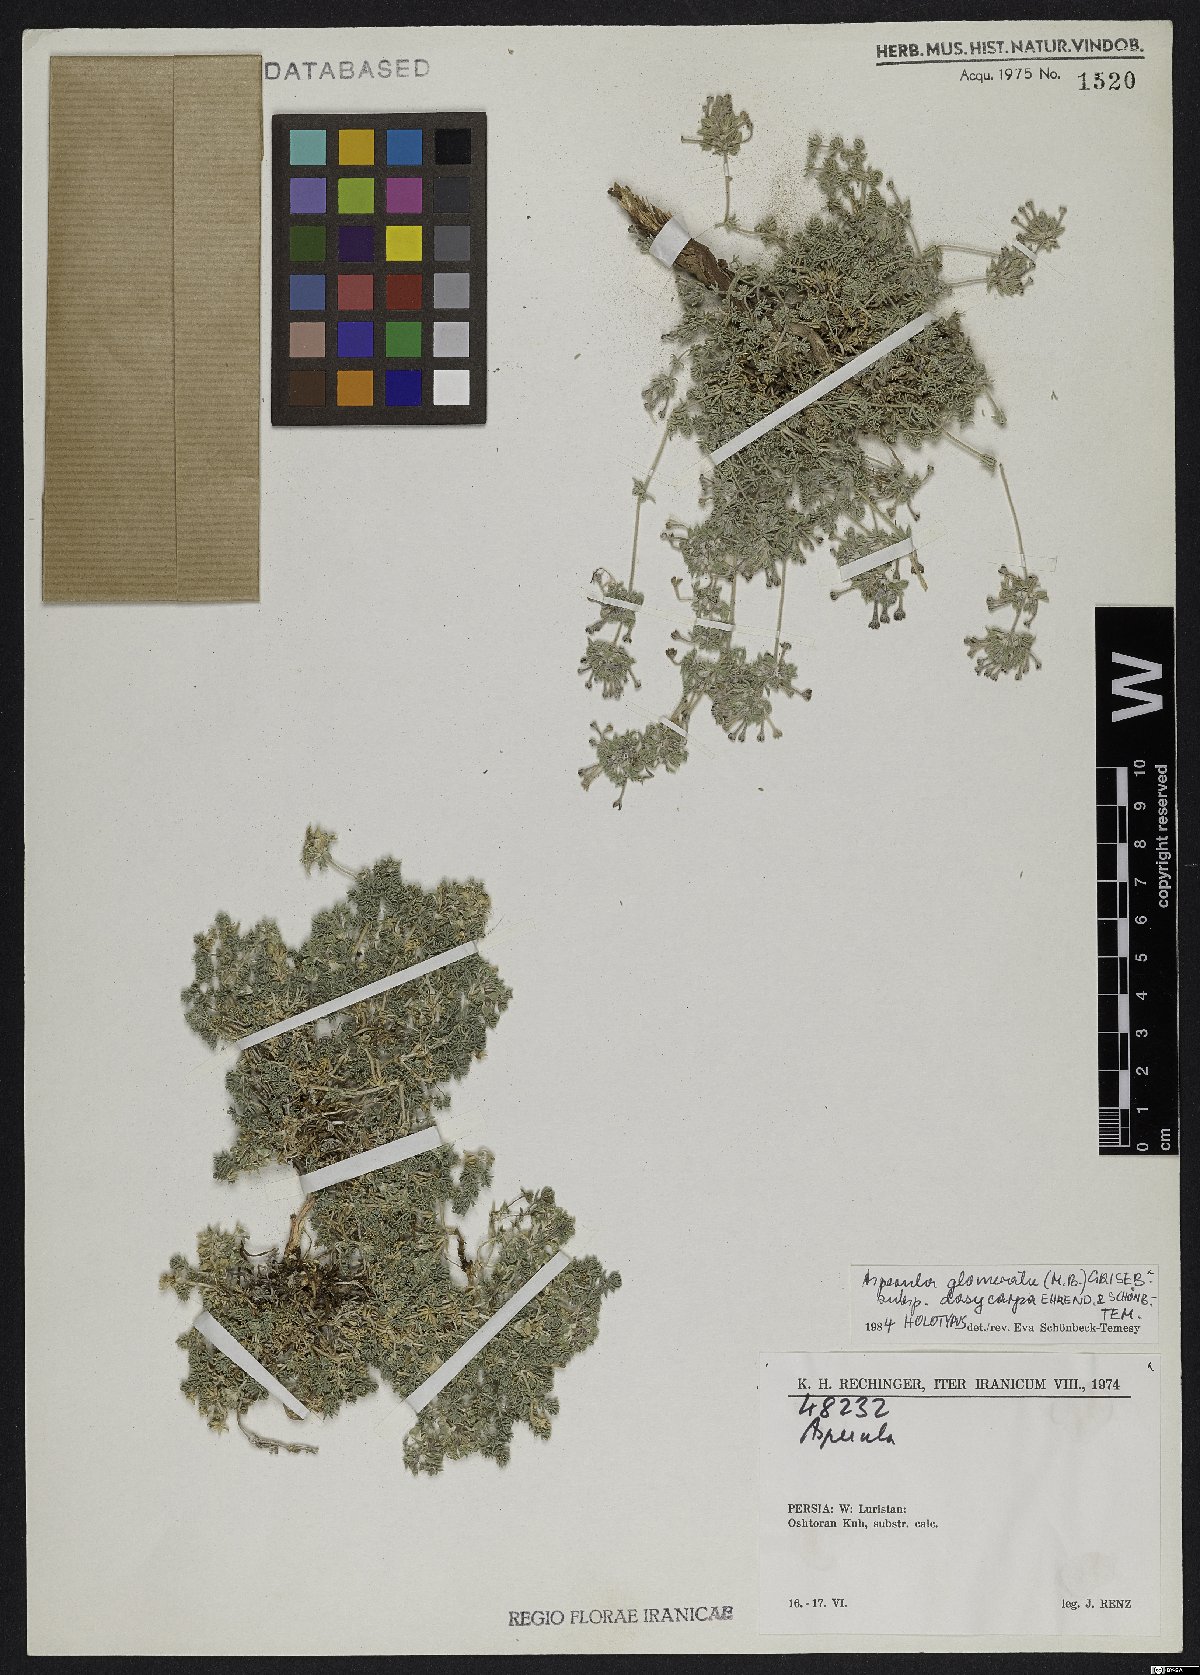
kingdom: Plantae
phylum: Tracheophyta
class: Magnoliopsida
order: Gentianales
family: Rubiaceae
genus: Asperula
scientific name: Asperula glomerata
